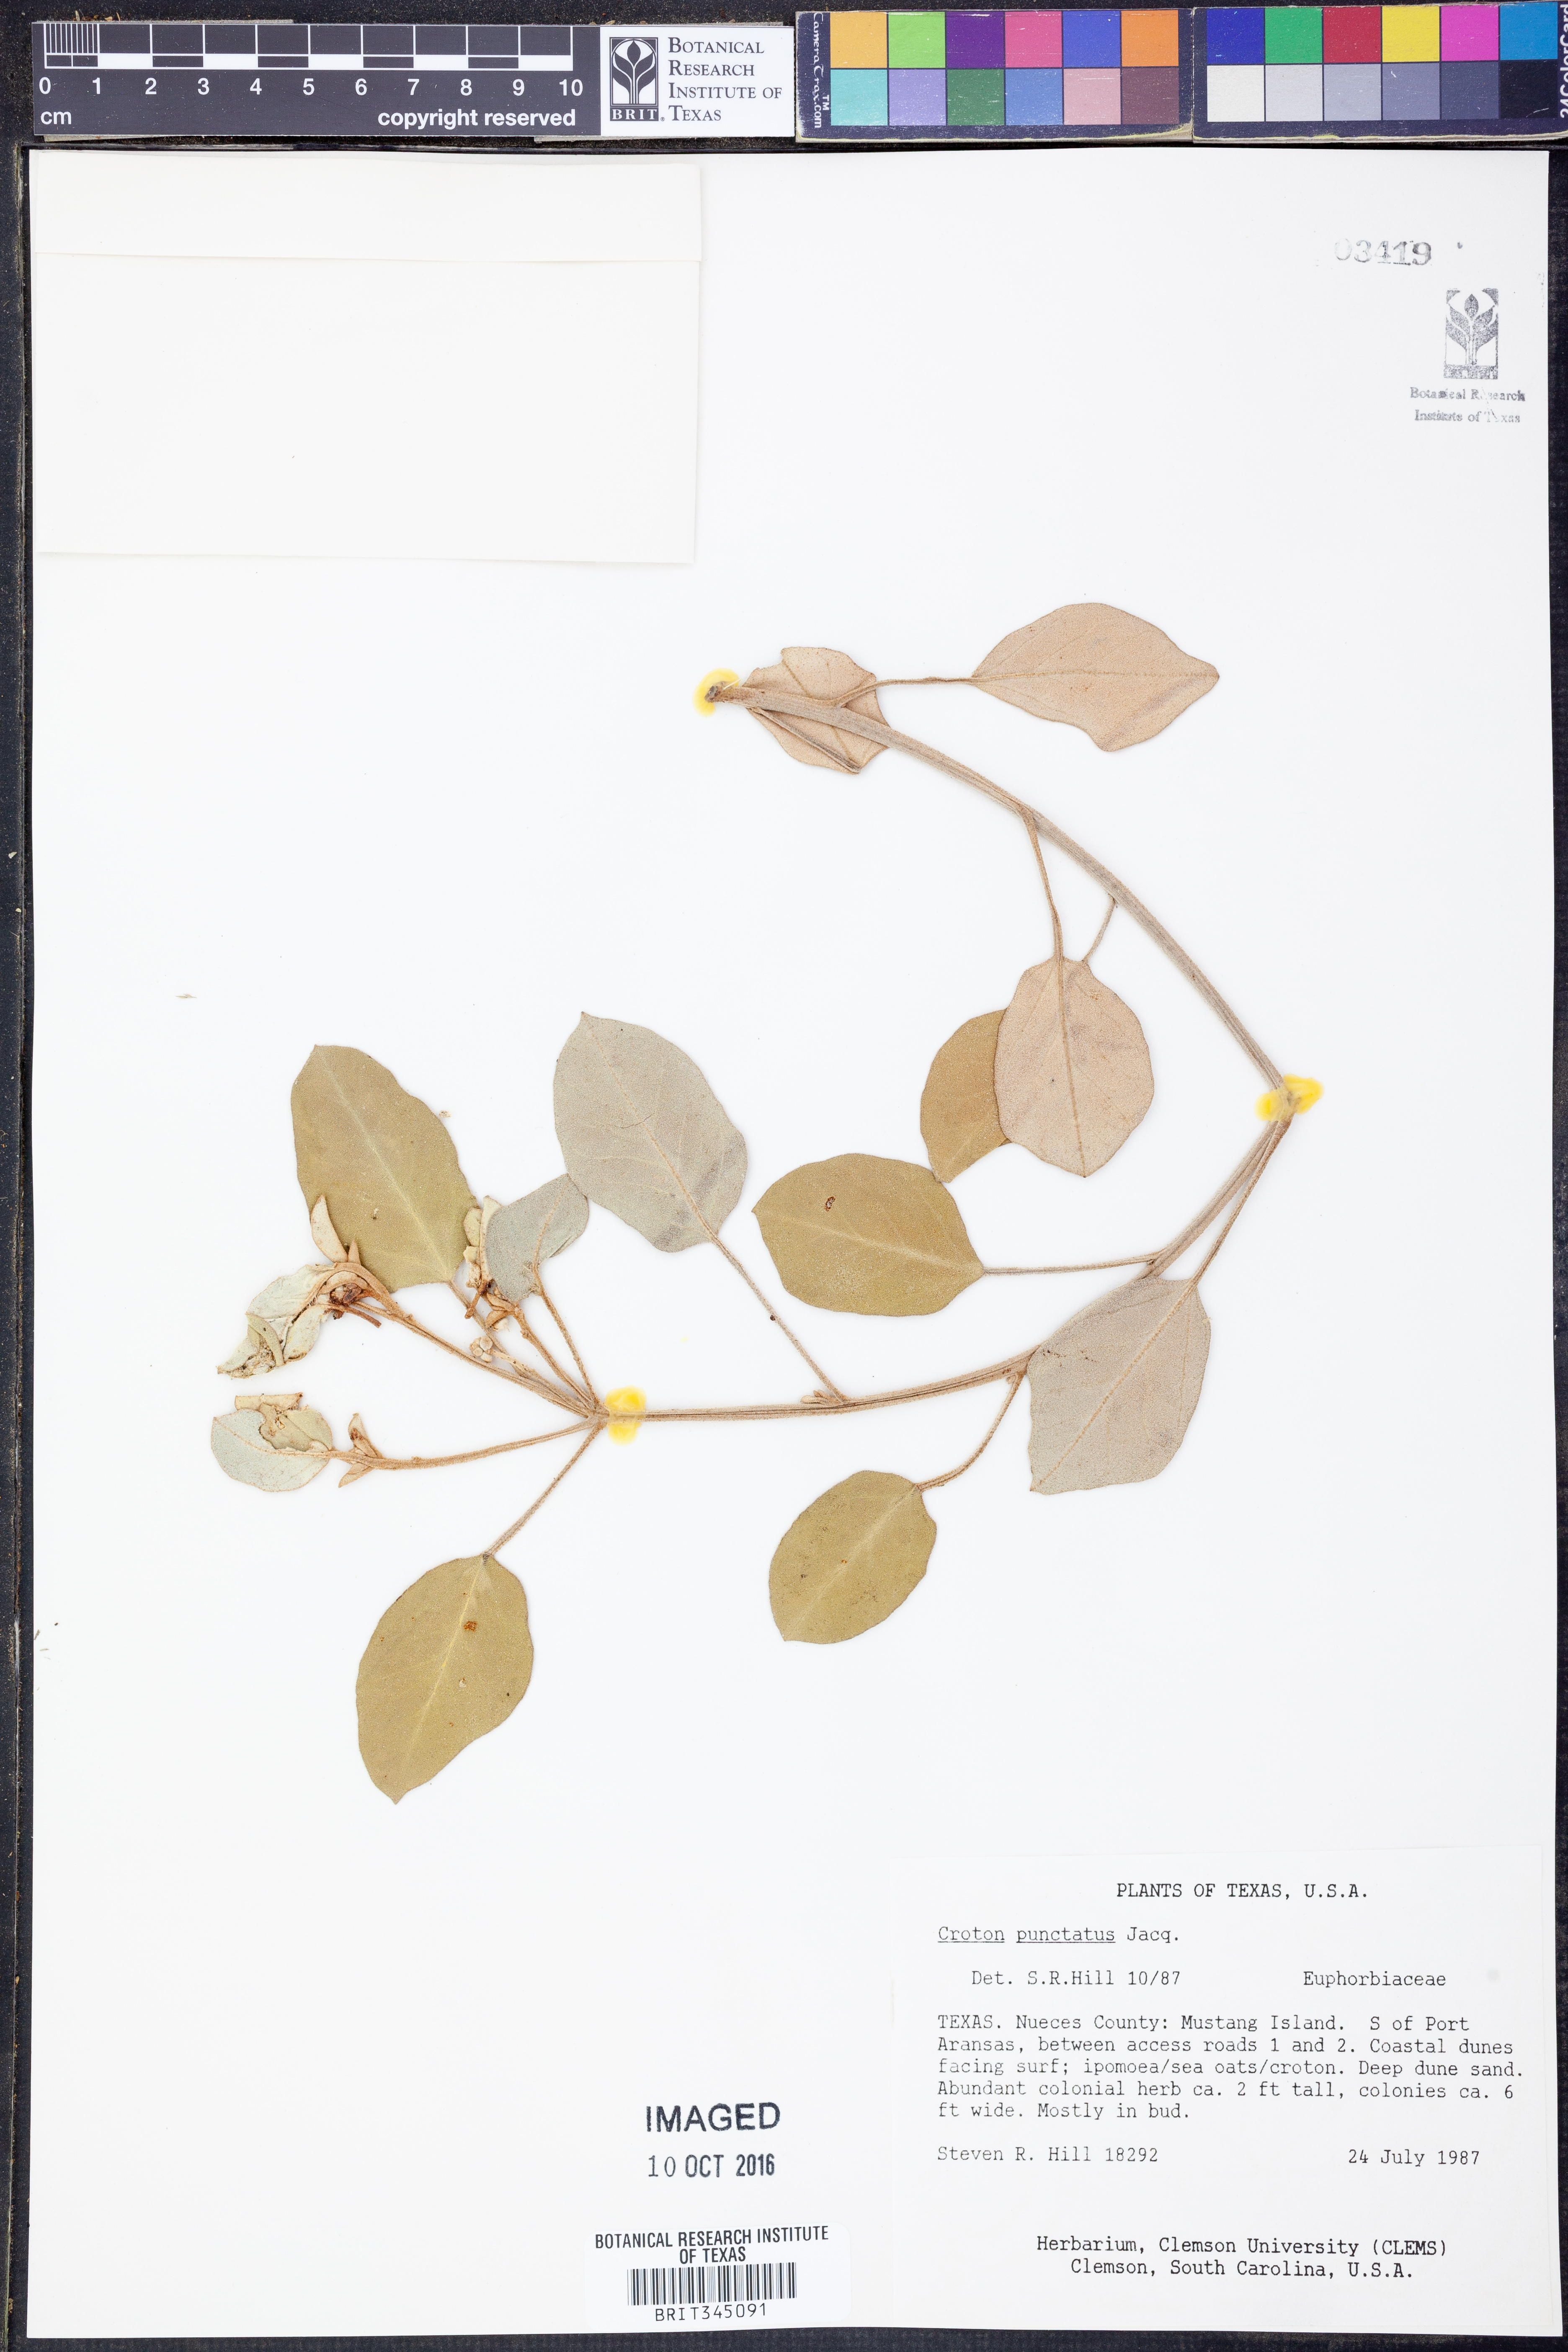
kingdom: Plantae
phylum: Tracheophyta
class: Magnoliopsida
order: Malpighiales
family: Euphorbiaceae
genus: Croton
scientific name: Croton punctatus
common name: Beach-tea
